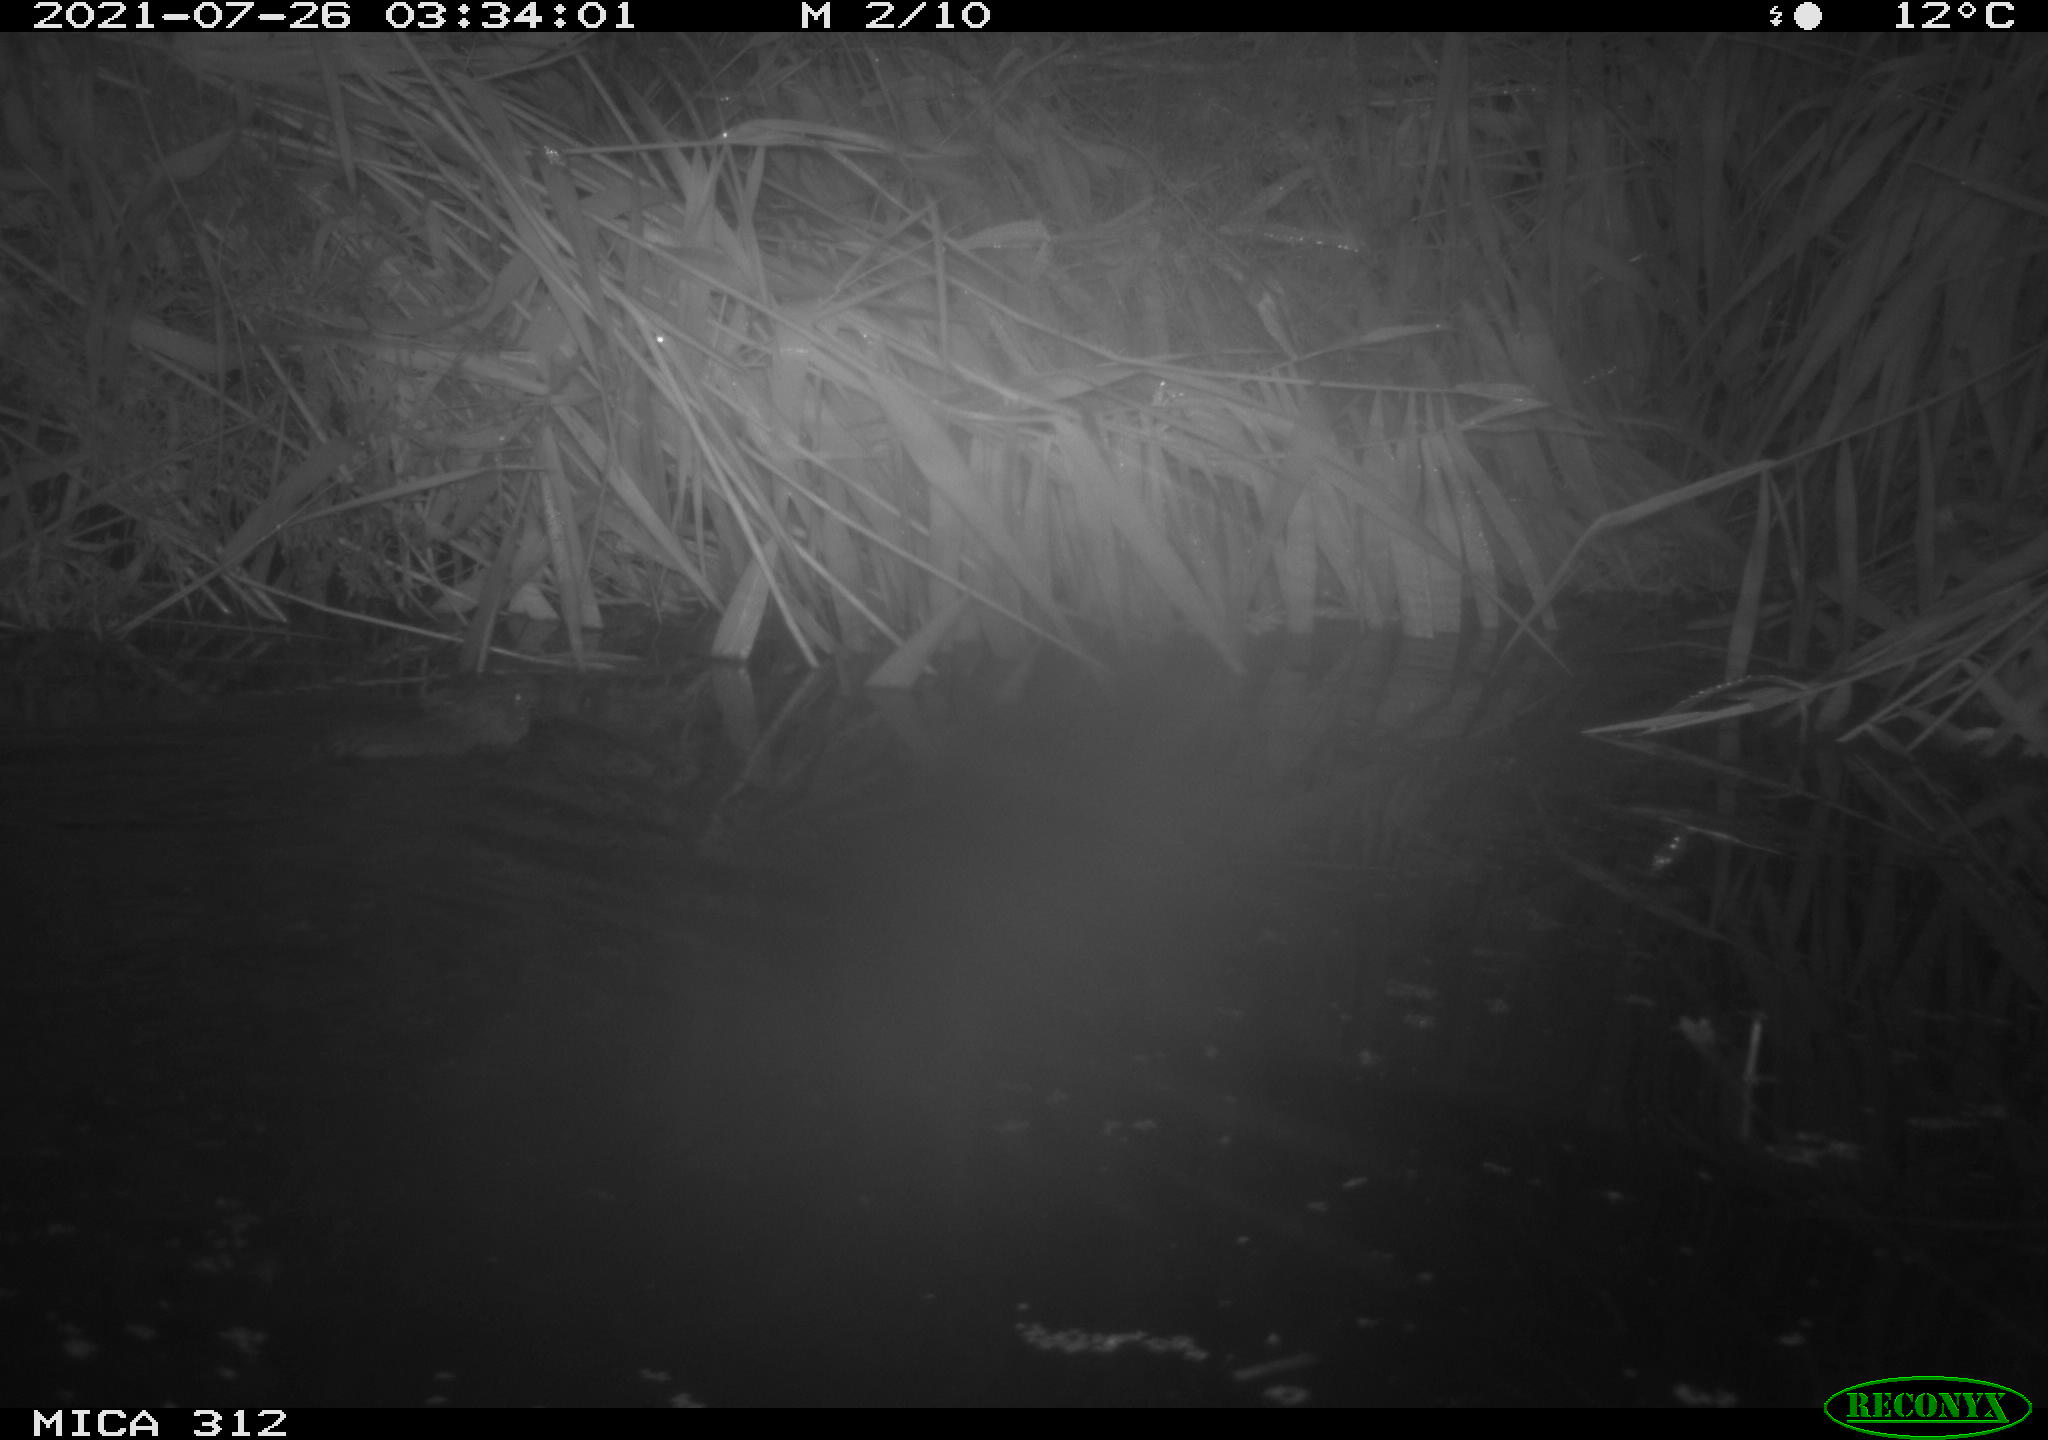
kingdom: Animalia
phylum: Chordata
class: Mammalia
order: Rodentia
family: Cricetidae
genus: Ondatra
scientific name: Ondatra zibethicus
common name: Muskrat
